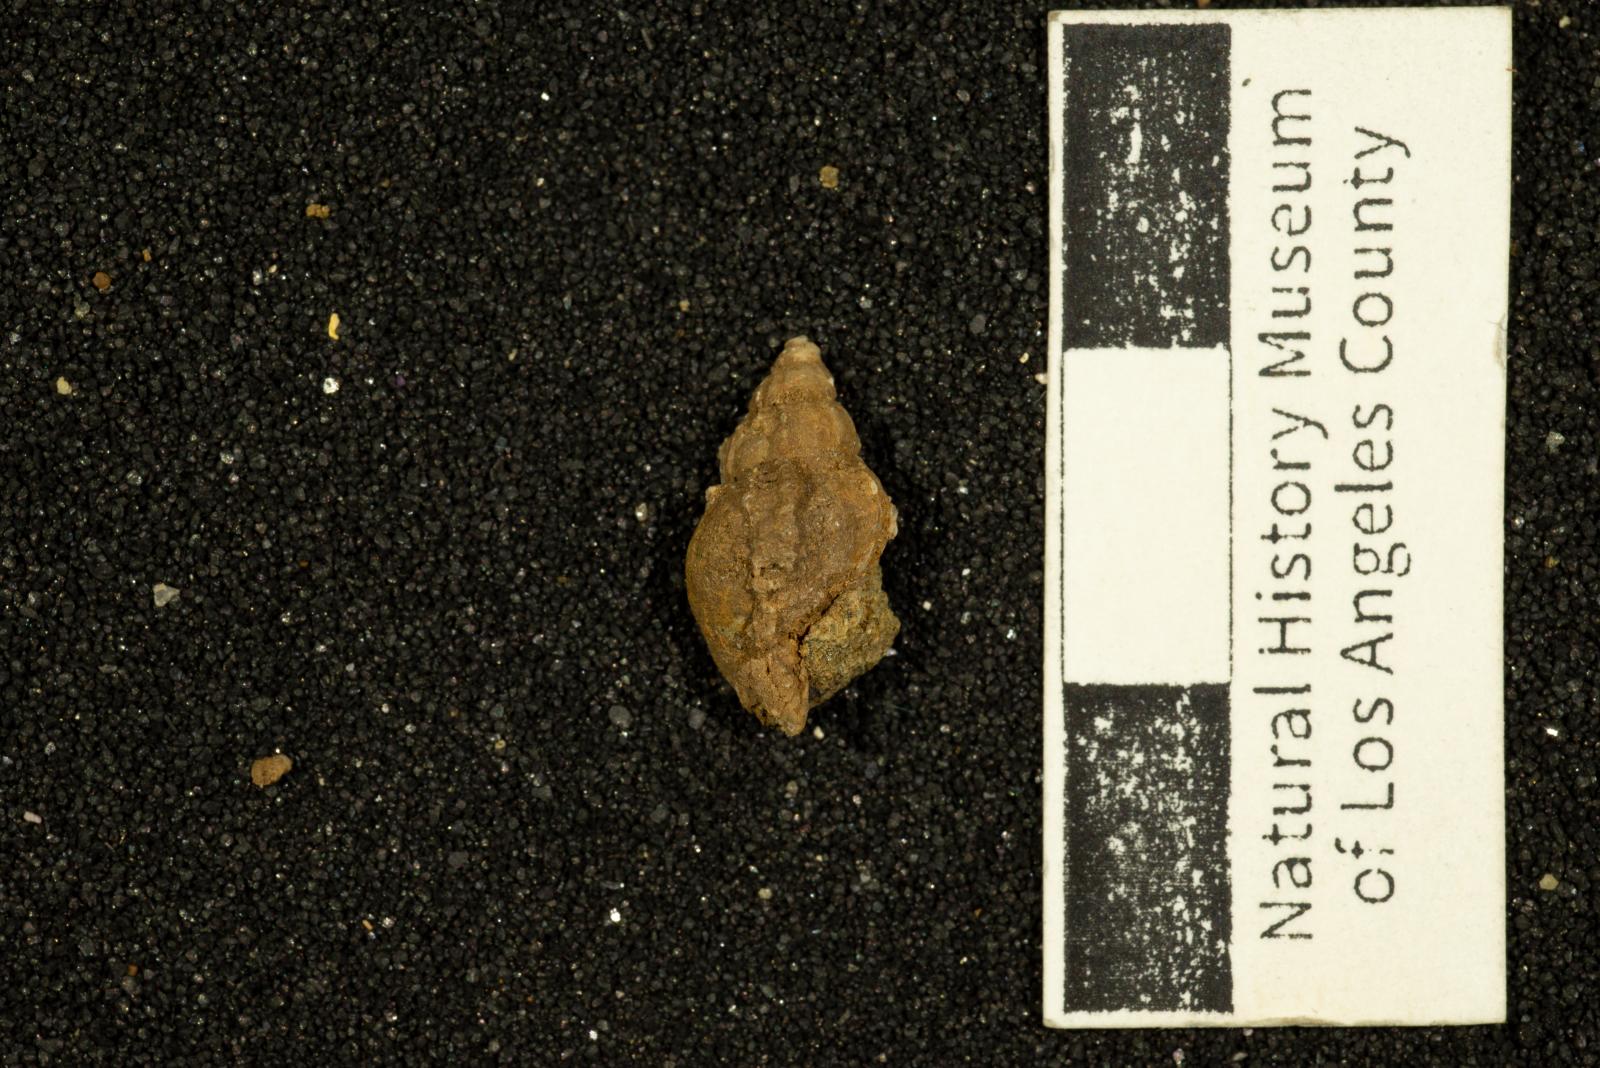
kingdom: Animalia
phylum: Mollusca
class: Gastropoda
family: Epitoniidae
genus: Acirsa
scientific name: Acirsa Ceratia nexilia
